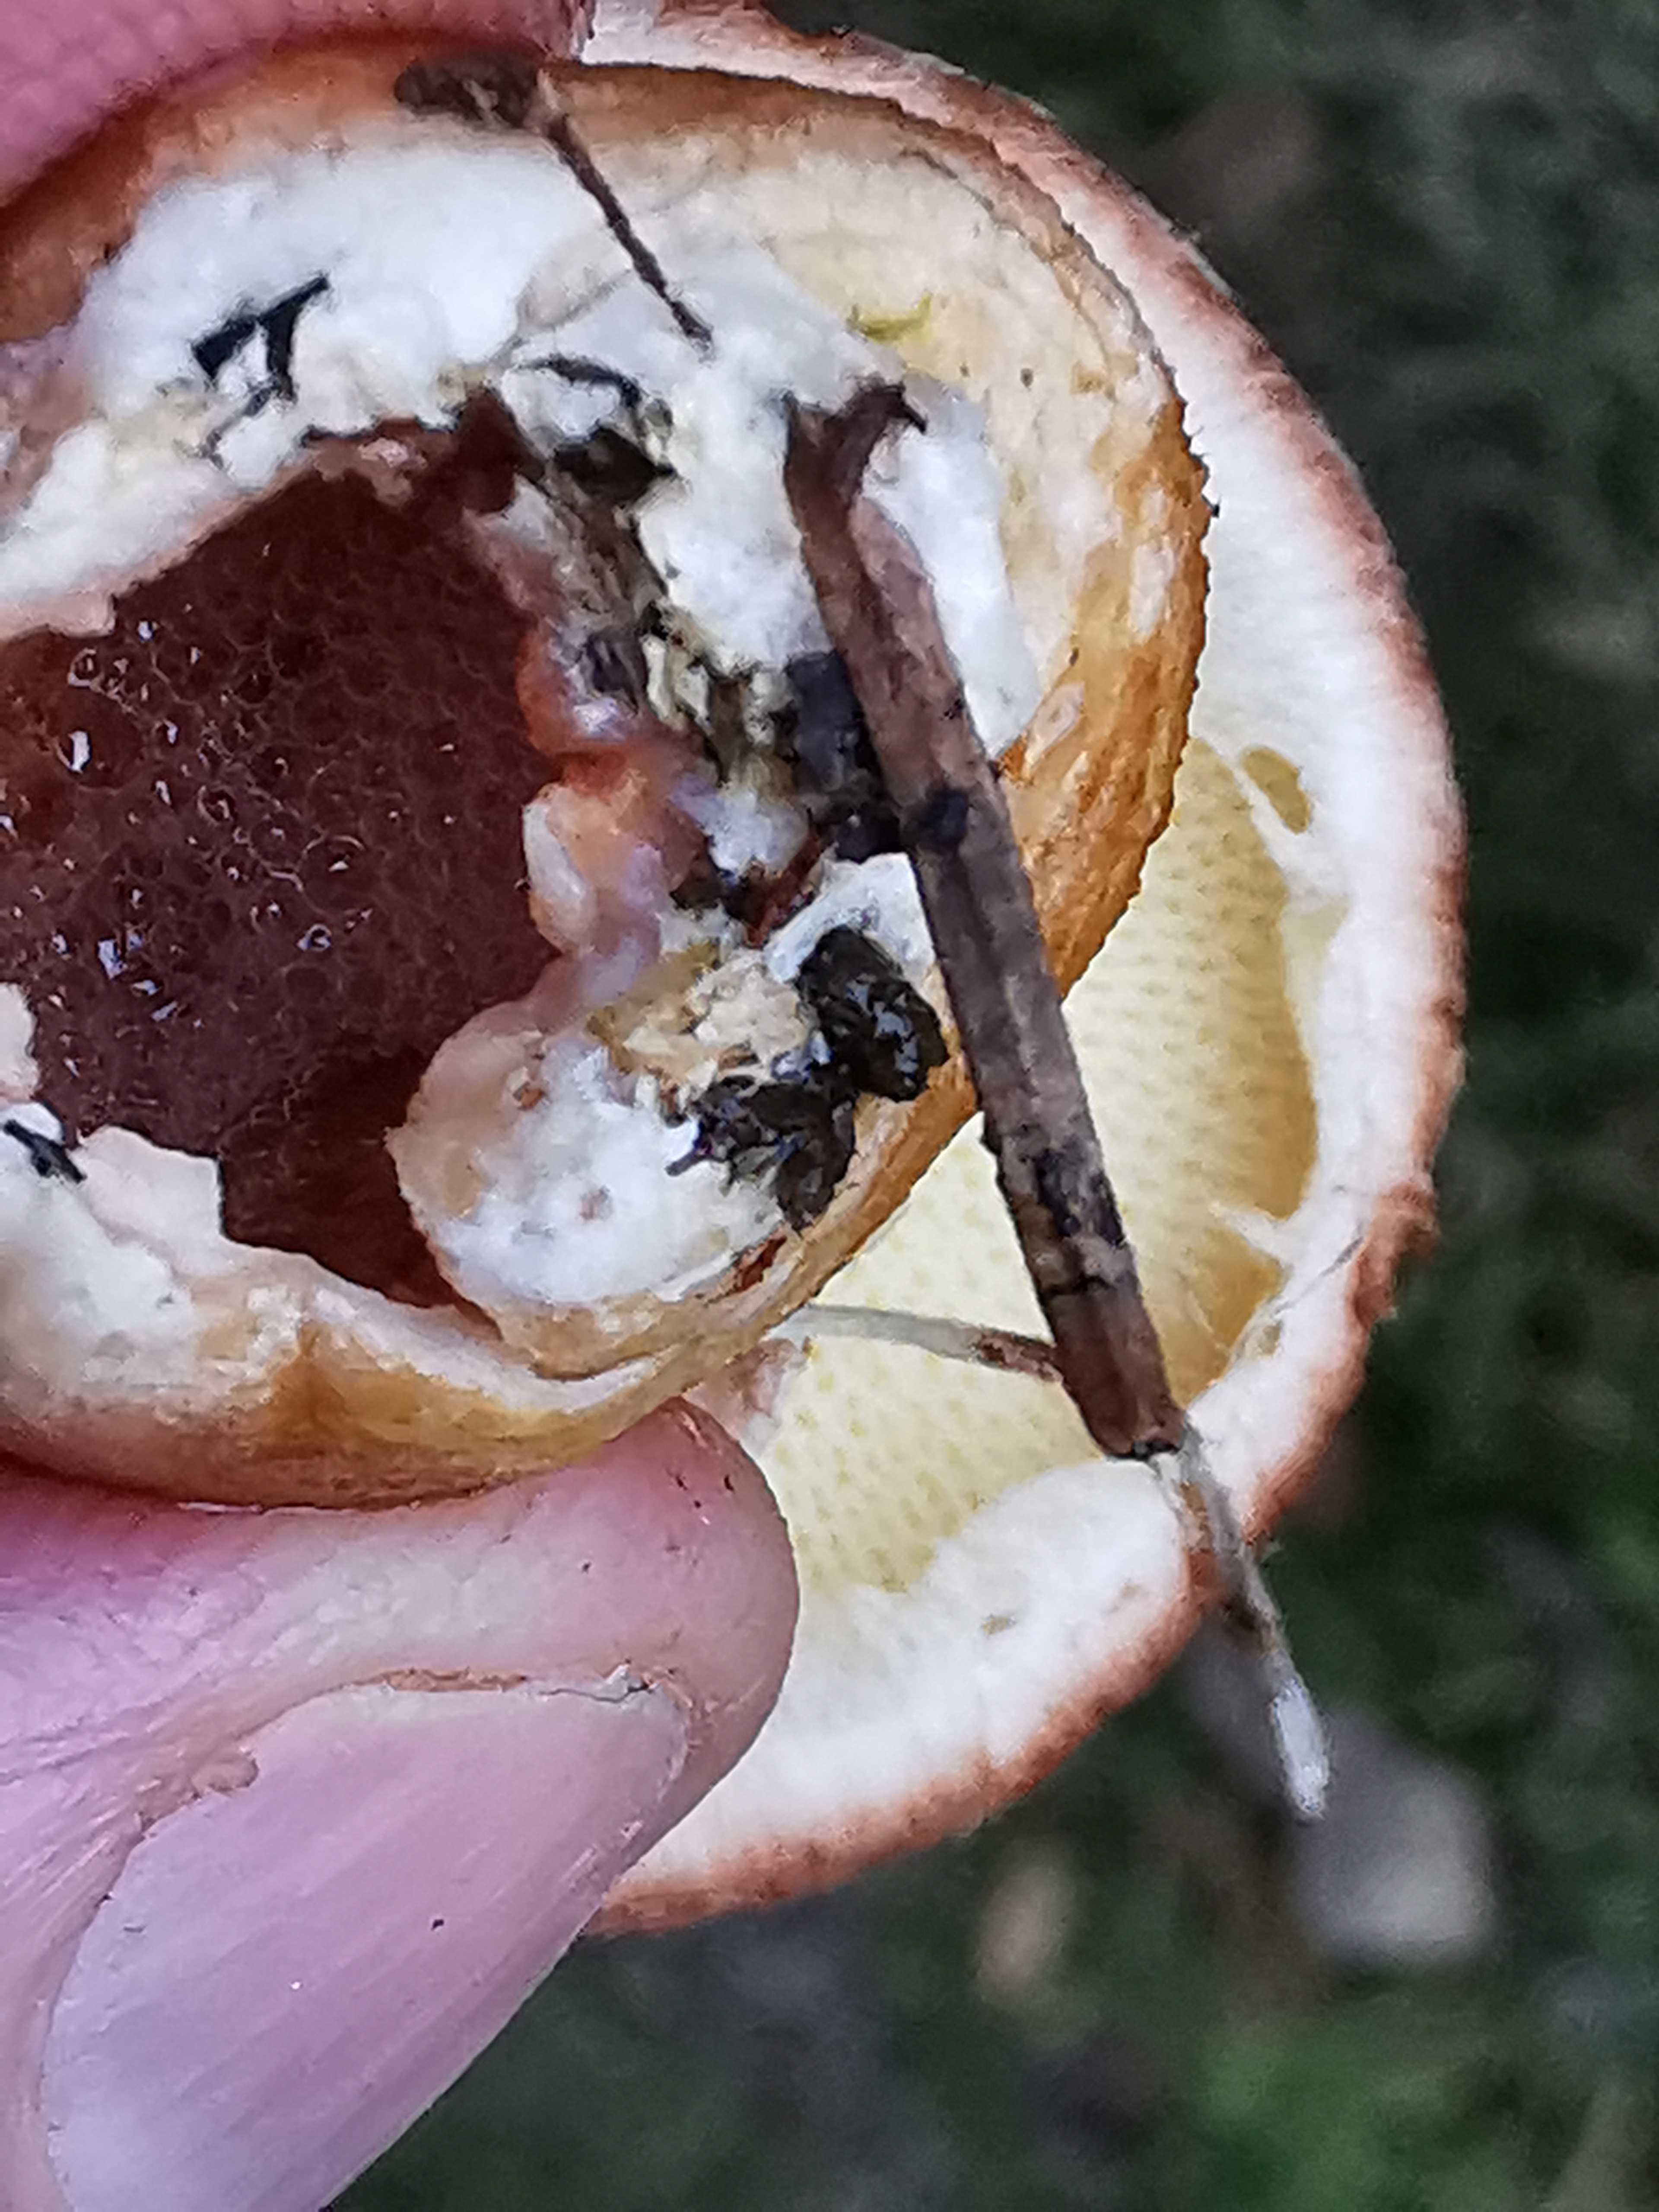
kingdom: Fungi
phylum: Basidiomycota
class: Agaricomycetes
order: Boletales
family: Suillaceae
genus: Suillus
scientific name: Suillus cavipes
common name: hulstokket slimrørhat
